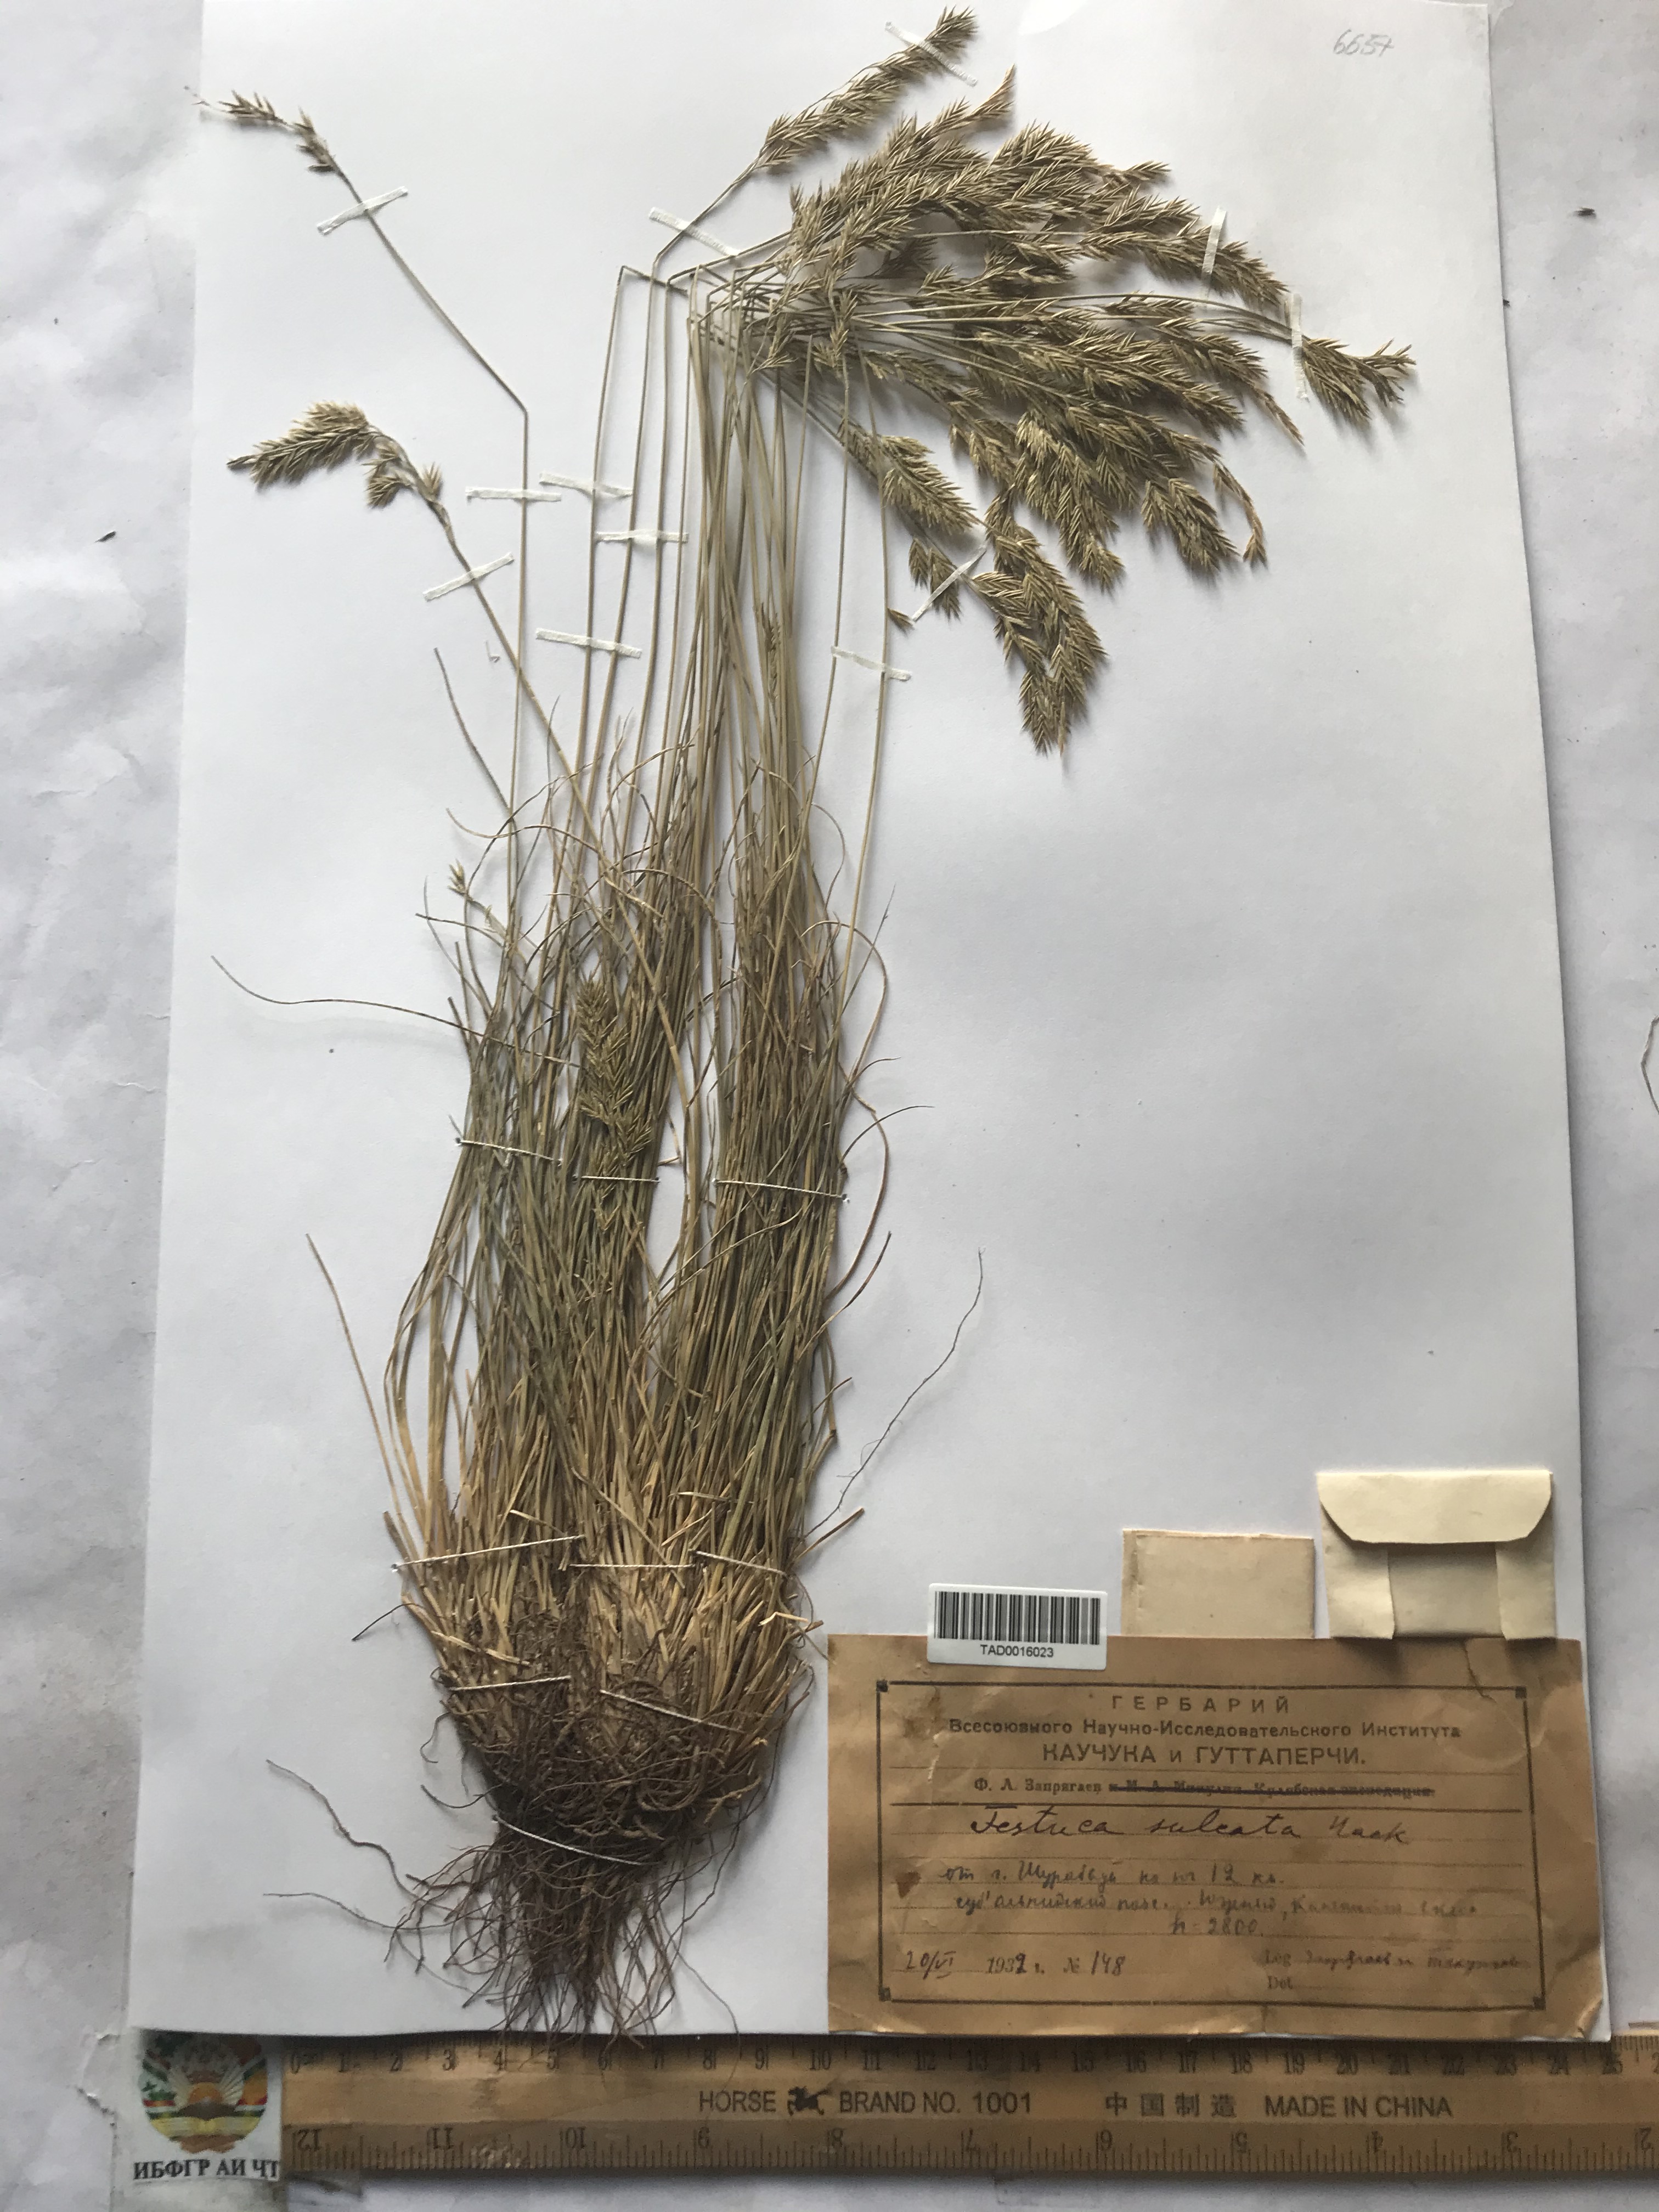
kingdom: Plantae
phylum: Tracheophyta
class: Liliopsida
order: Poales
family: Poaceae
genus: Festuca
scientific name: Festuca sulcata
